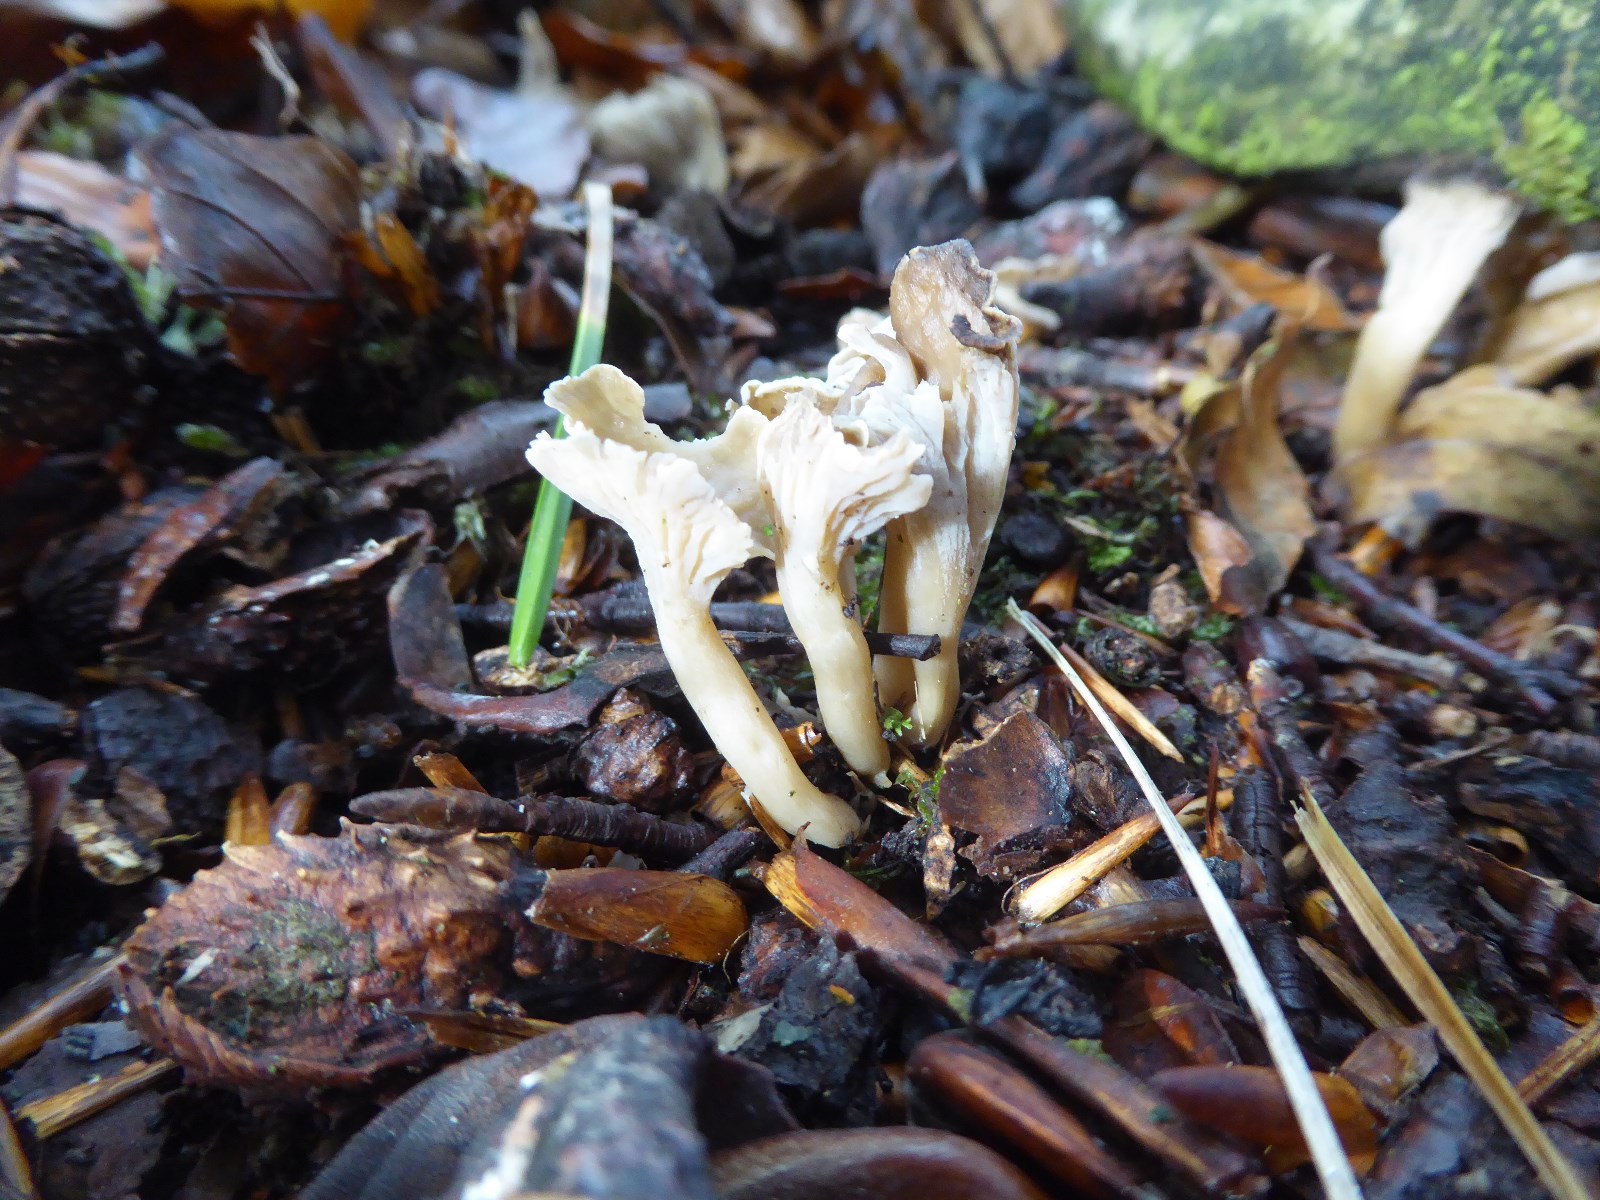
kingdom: Fungi
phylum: Basidiomycota
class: Agaricomycetes
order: Cantharellales
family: Hydnaceae
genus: Craterellus
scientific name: Craterellus undulatus
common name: liden kantarel
